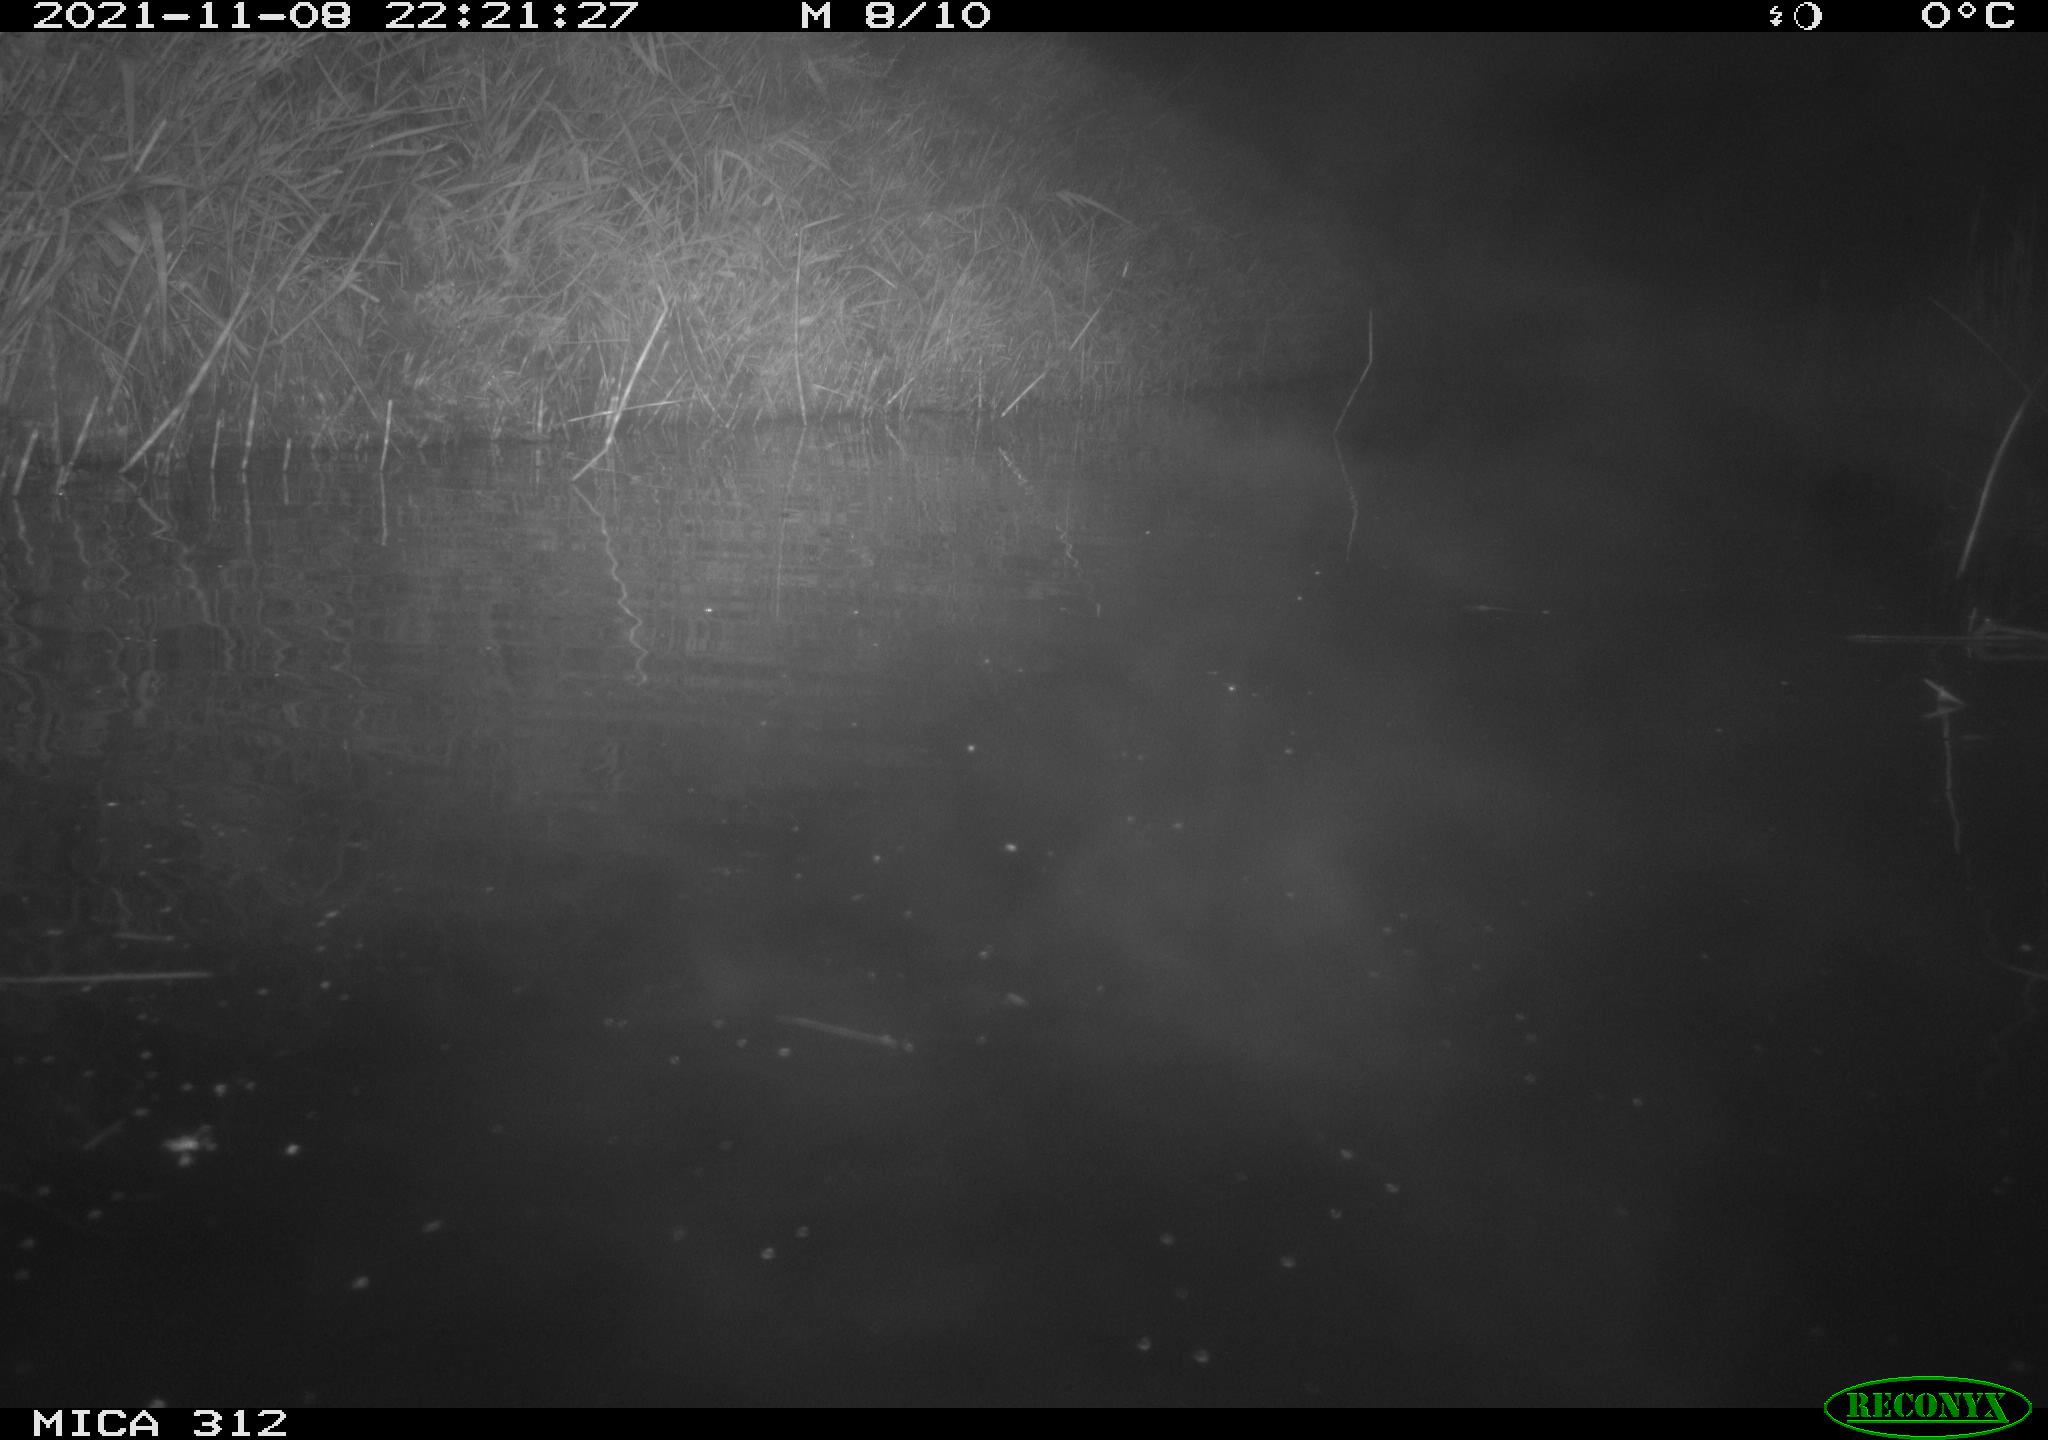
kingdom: Animalia
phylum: Chordata
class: Aves
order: Gruiformes
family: Rallidae
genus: Gallinula
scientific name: Gallinula chloropus
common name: Common moorhen
